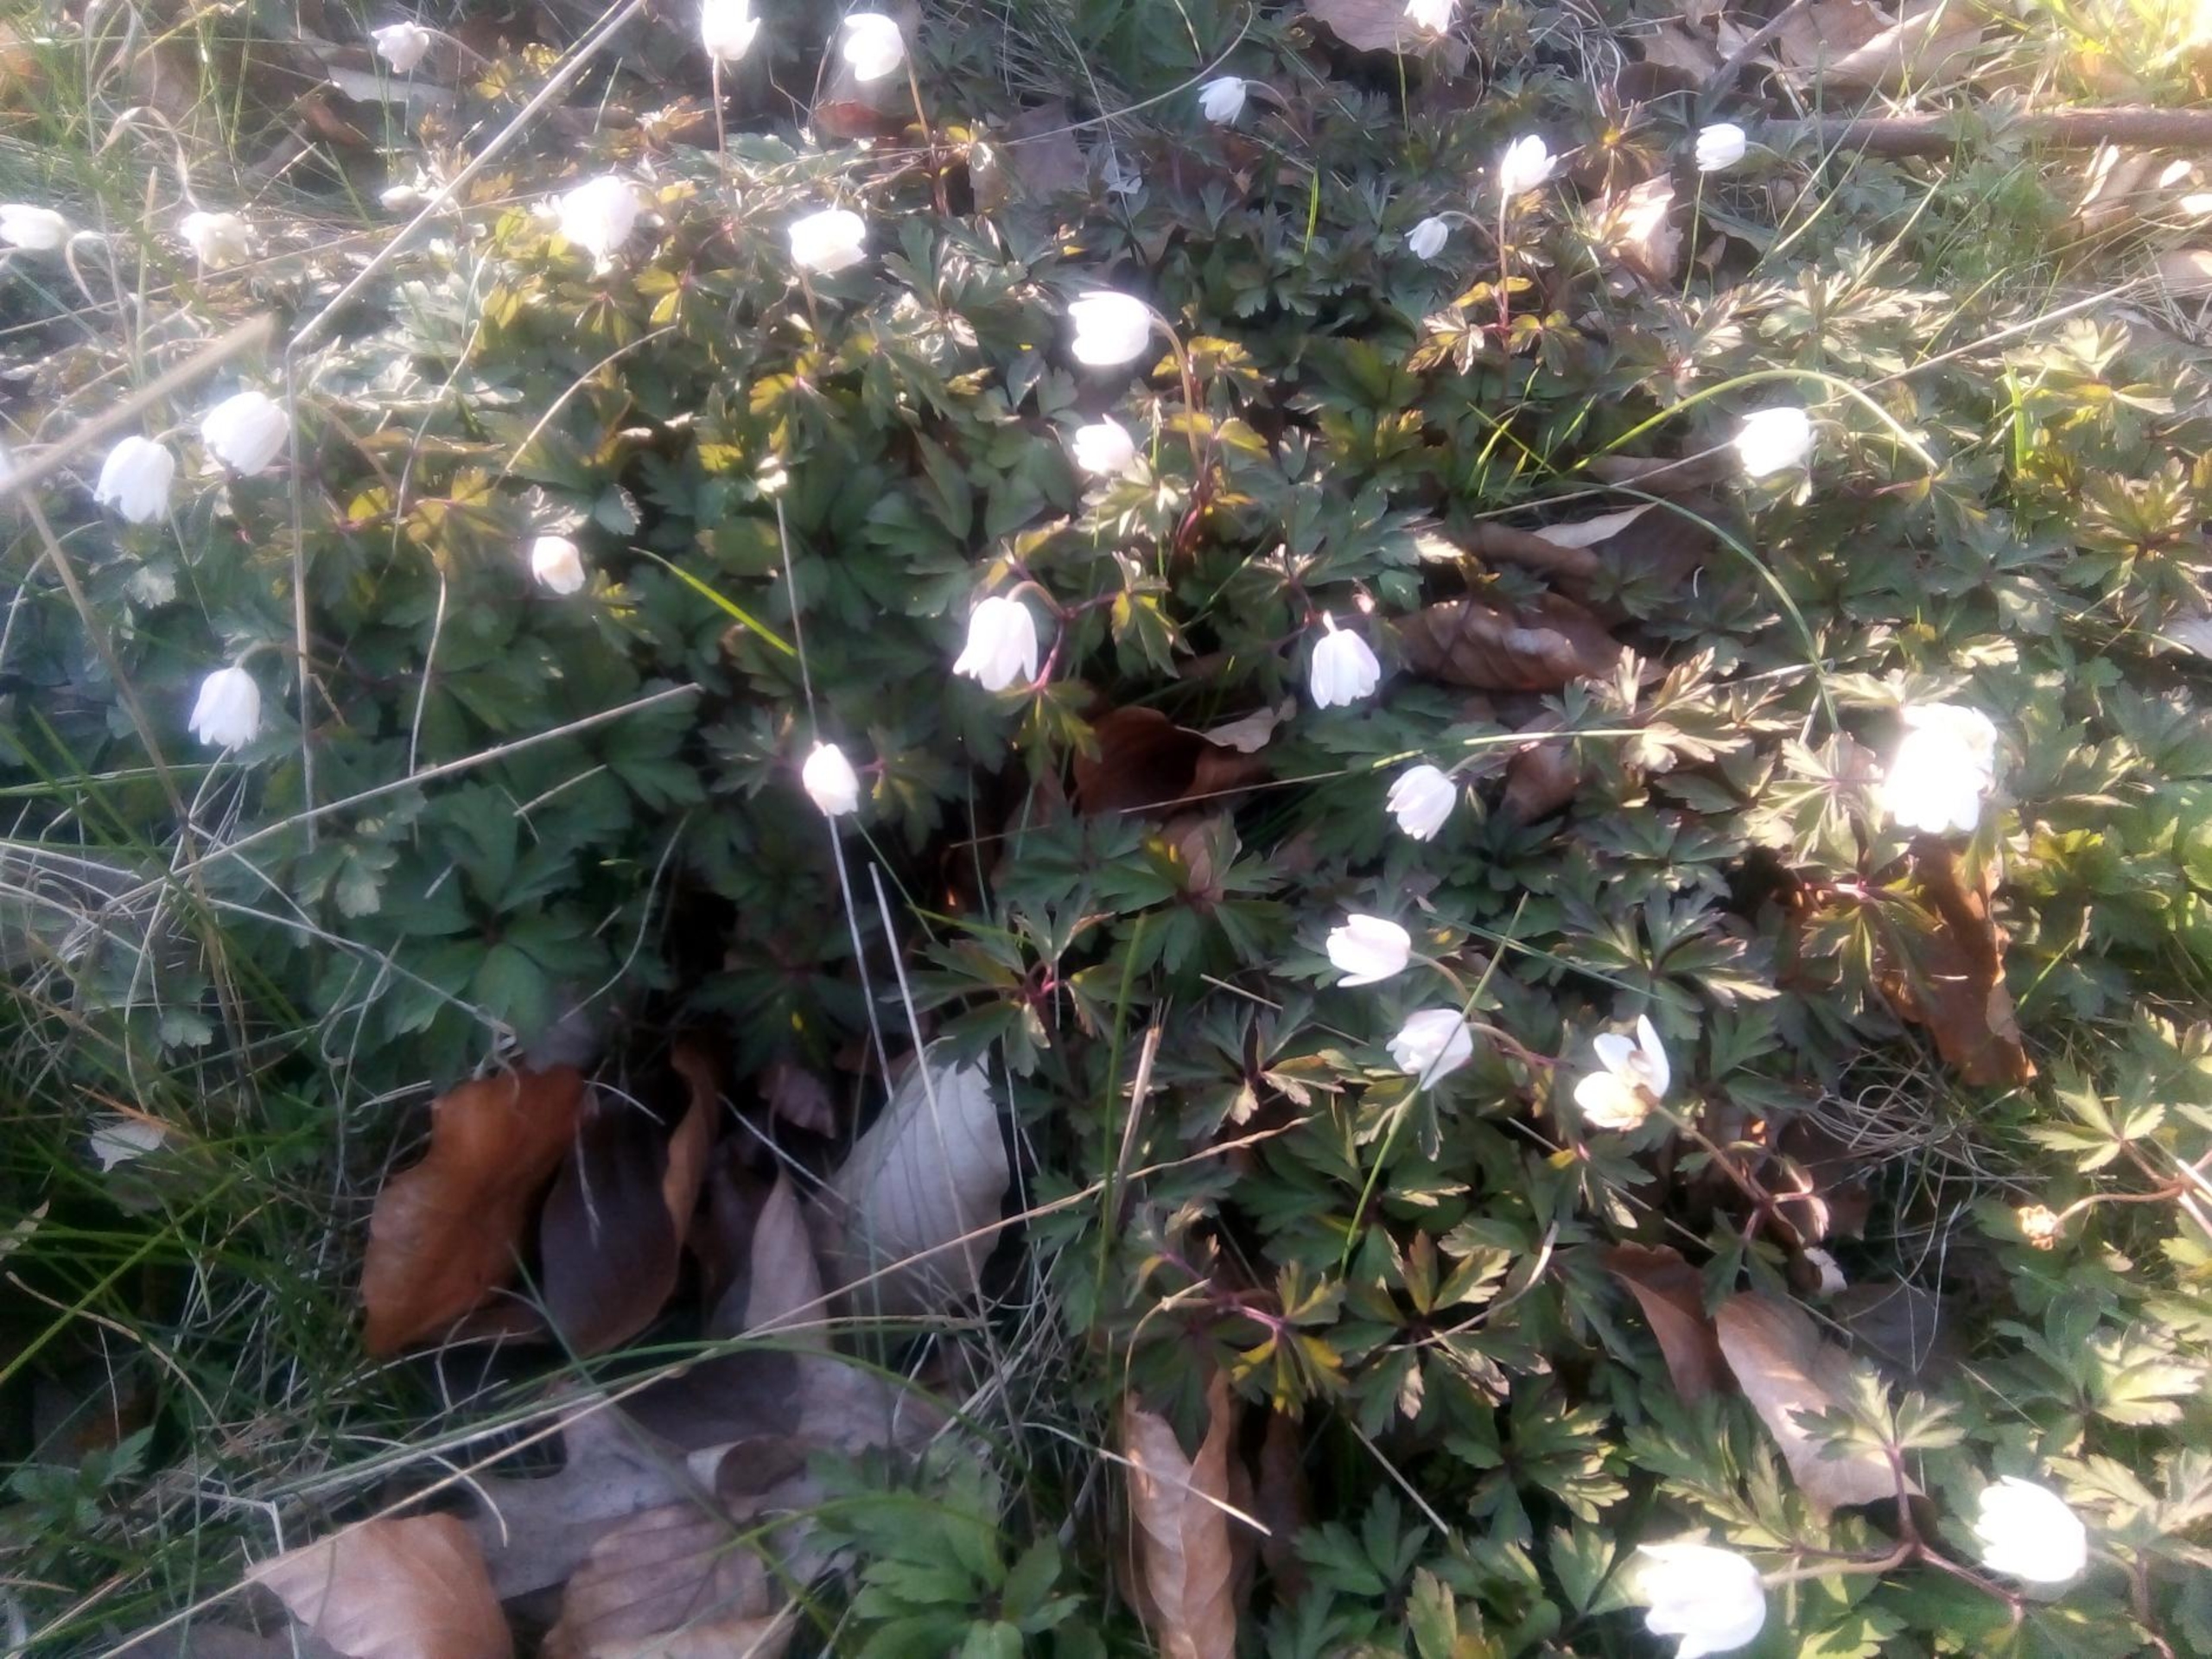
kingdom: Plantae
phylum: Tracheophyta
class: Magnoliopsida
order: Ranunculales
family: Ranunculaceae
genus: Anemone
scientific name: Anemone nemorosa
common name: Hvid anemone
